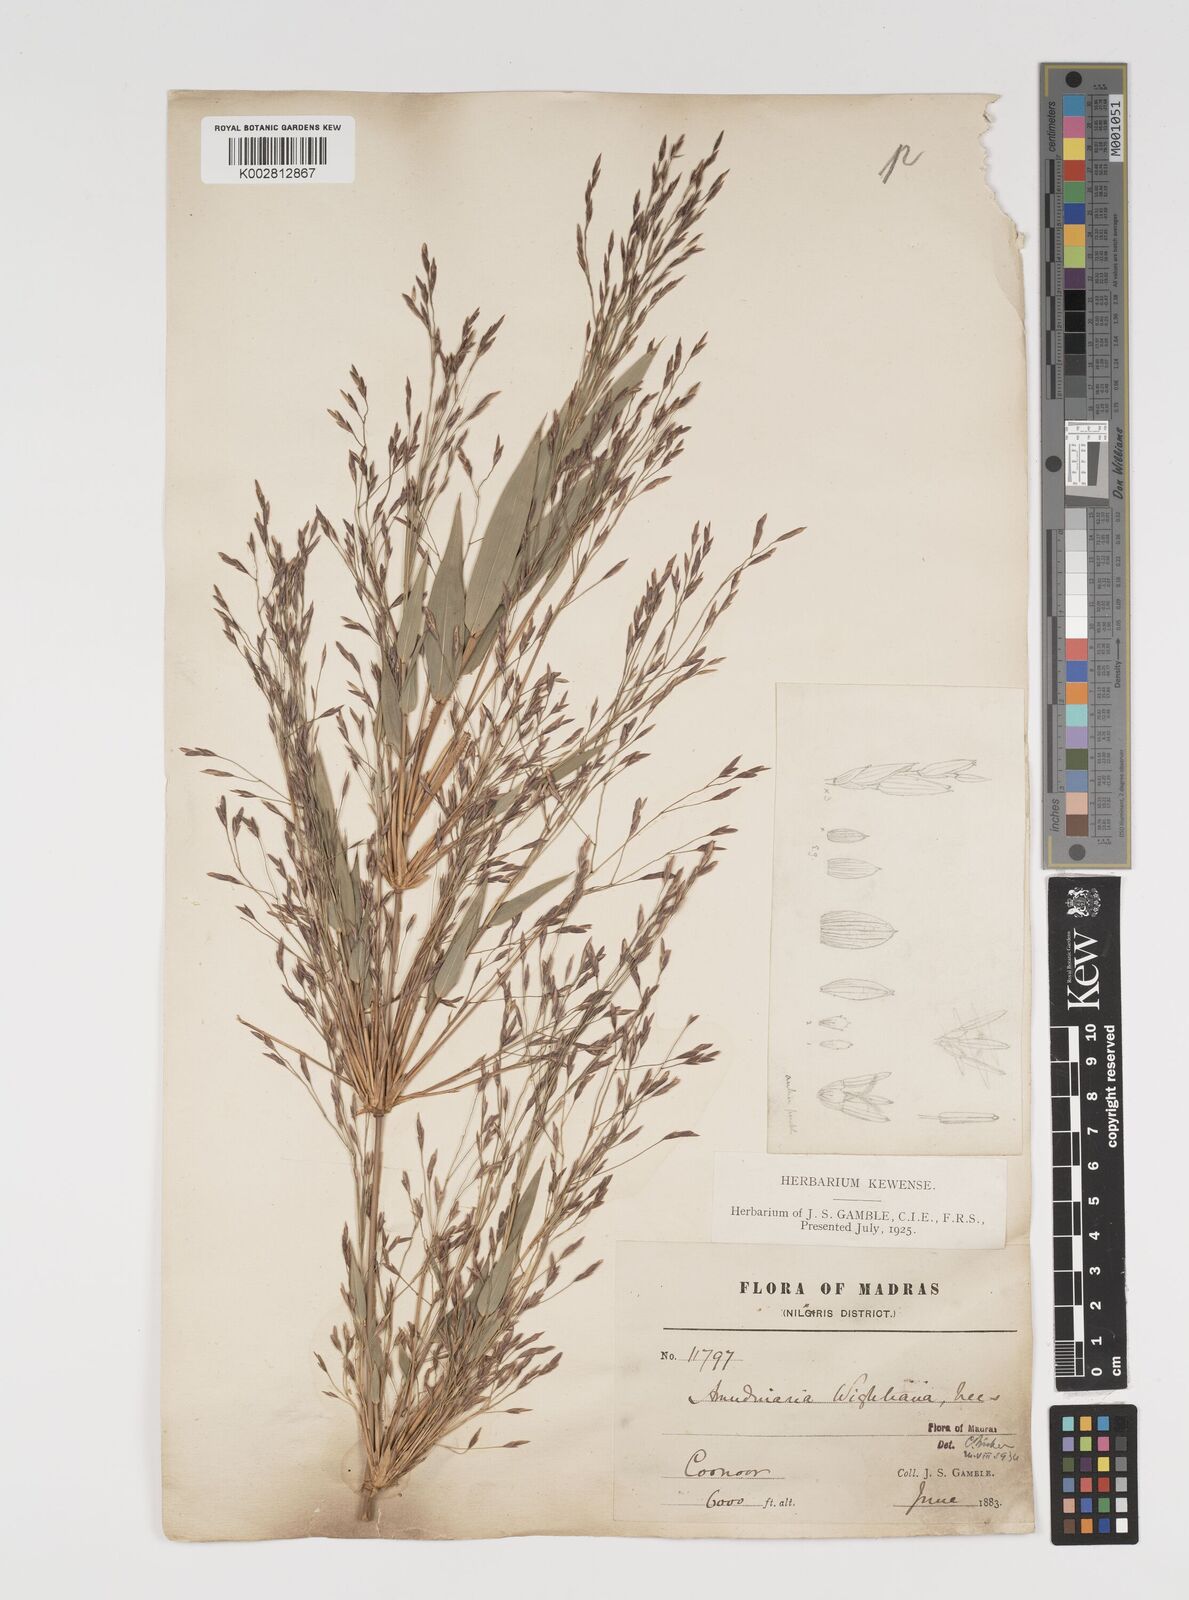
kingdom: Plantae
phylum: Tracheophyta
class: Liliopsida
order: Poales
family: Poaceae
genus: Kuruna
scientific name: Kuruna wightiana
